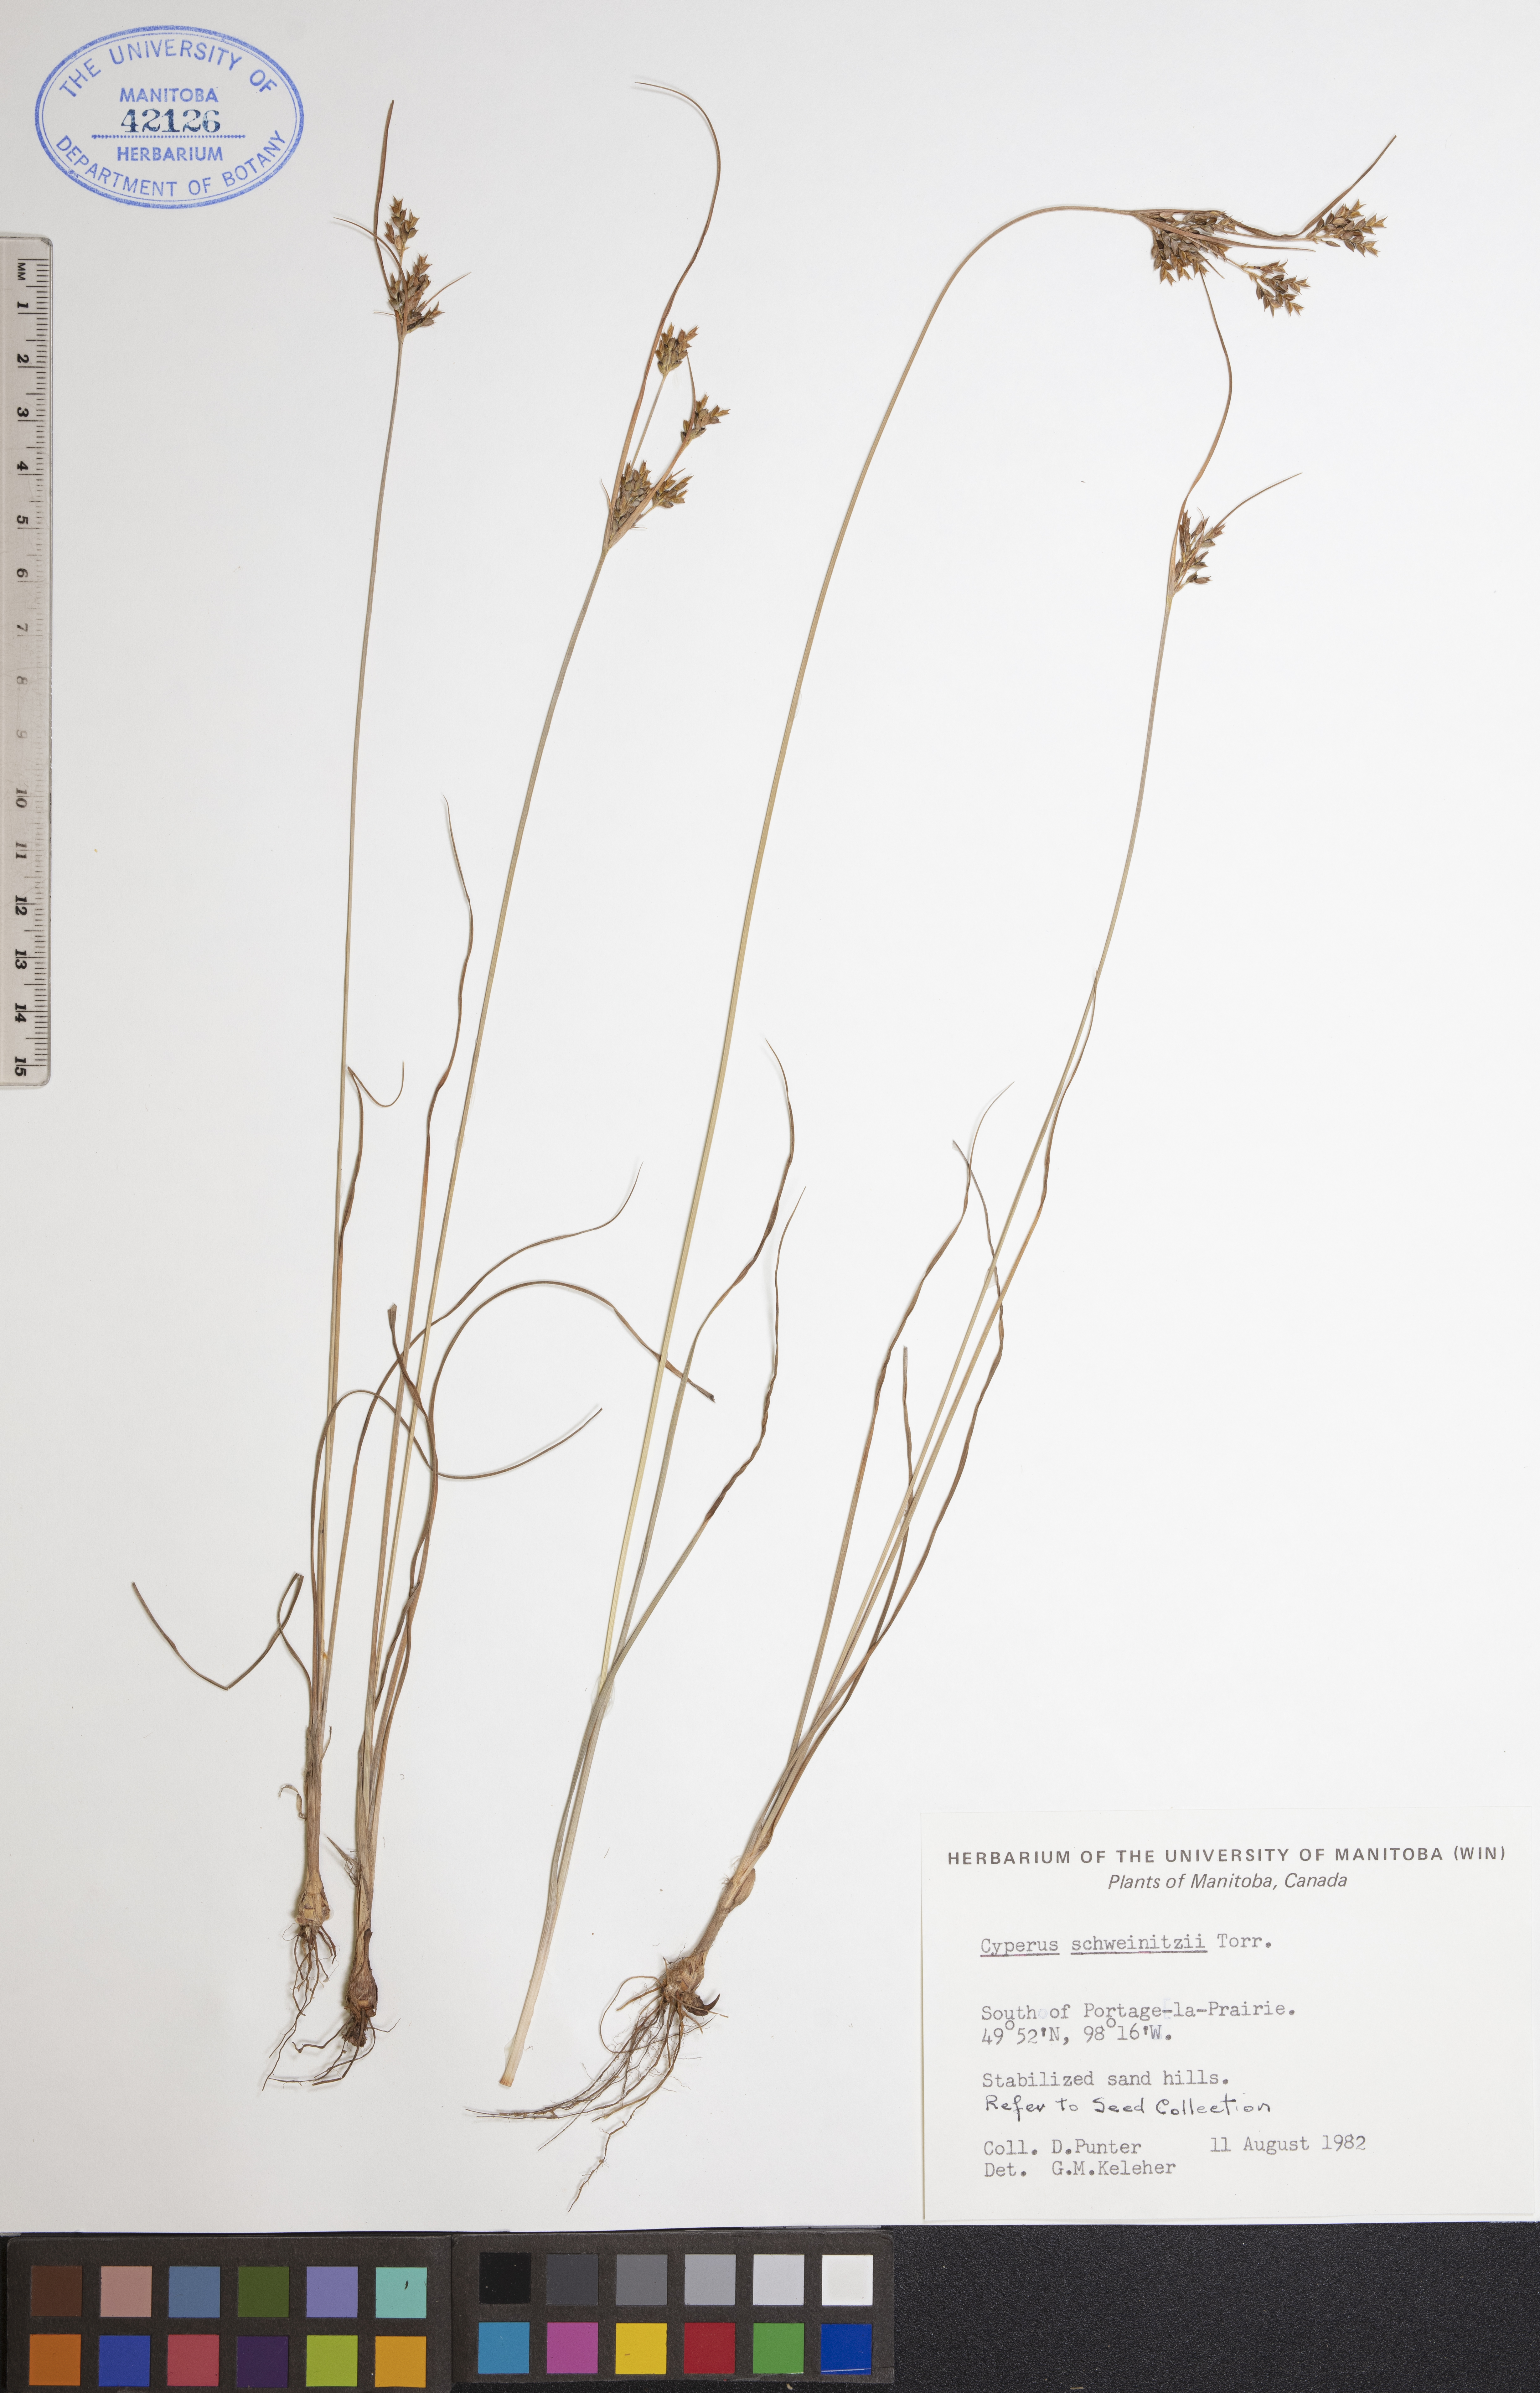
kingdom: Plantae
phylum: Tracheophyta
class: Liliopsida
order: Poales
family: Cyperaceae
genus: Cyperus
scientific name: Cyperus schweinitzii
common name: Schweinitz's cyperus
